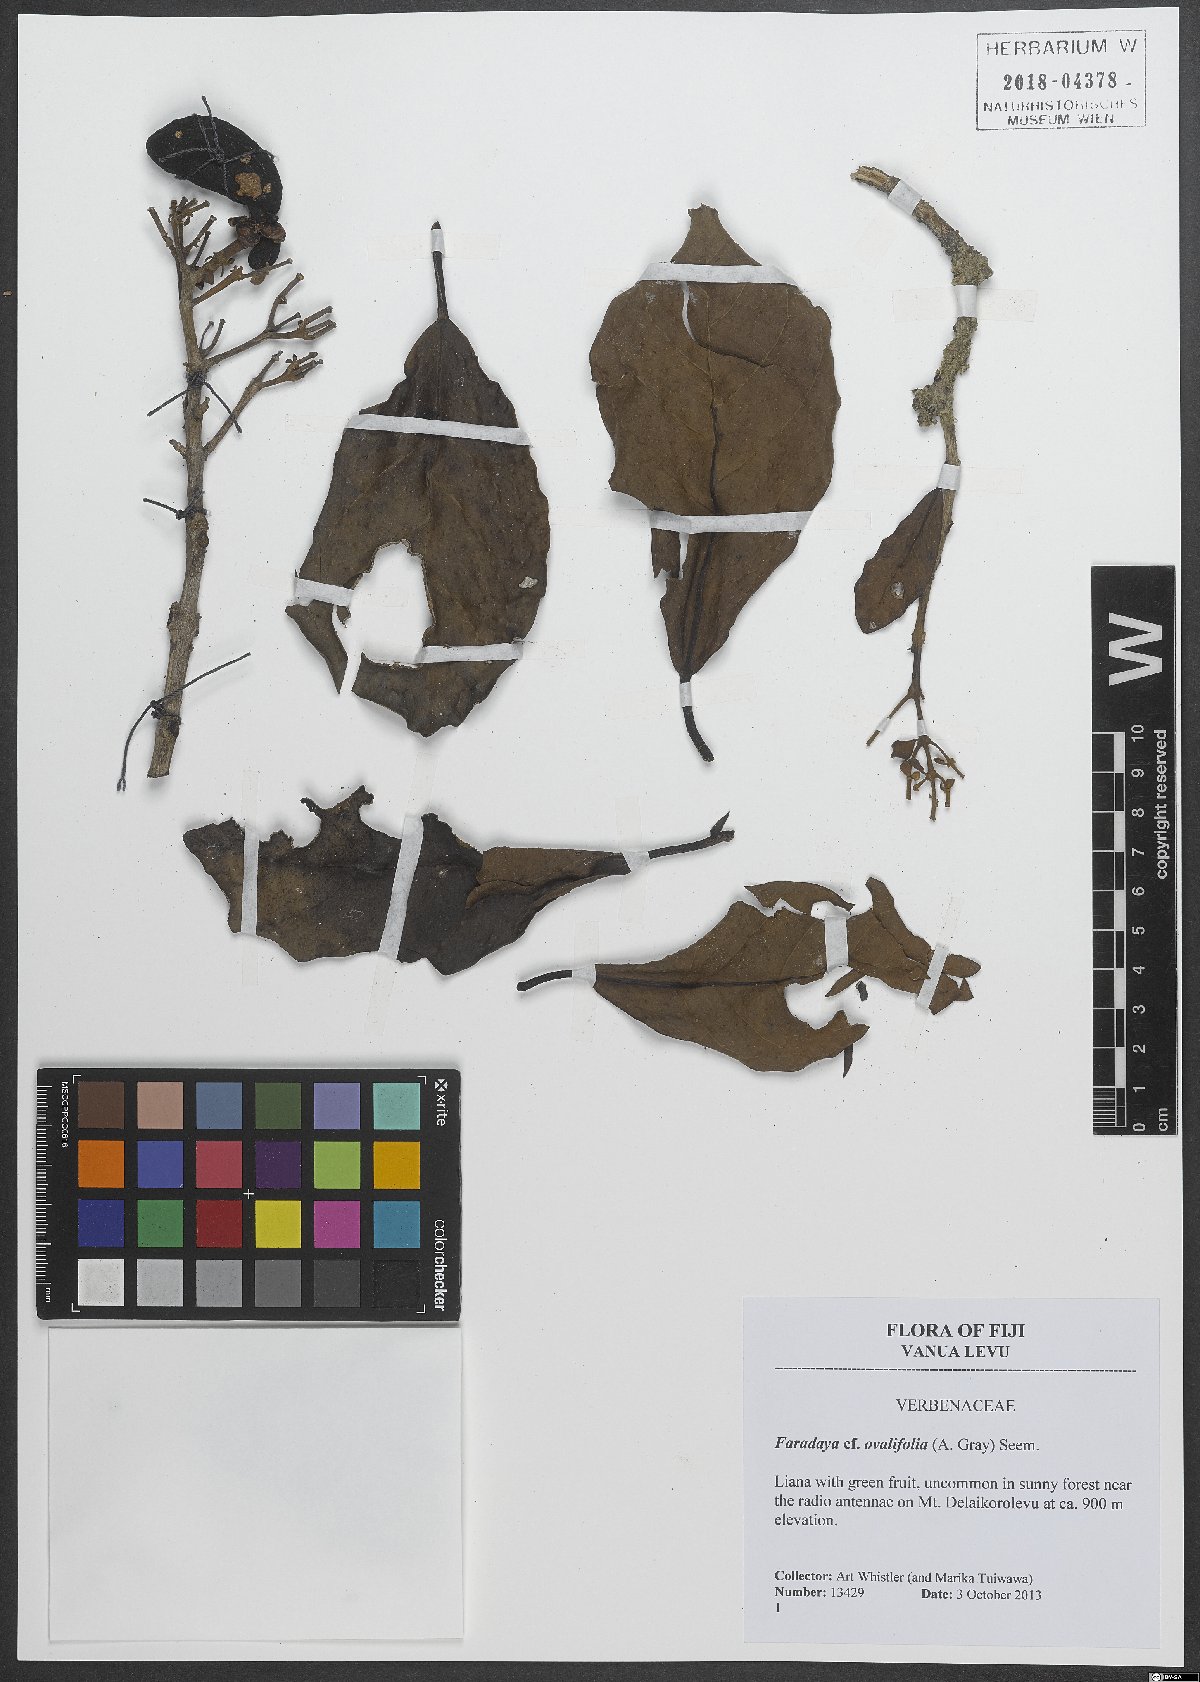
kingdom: Plantae
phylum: Tracheophyta
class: Magnoliopsida
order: Lamiales
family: Lamiaceae
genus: Oxera
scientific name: Oxera amicorum
